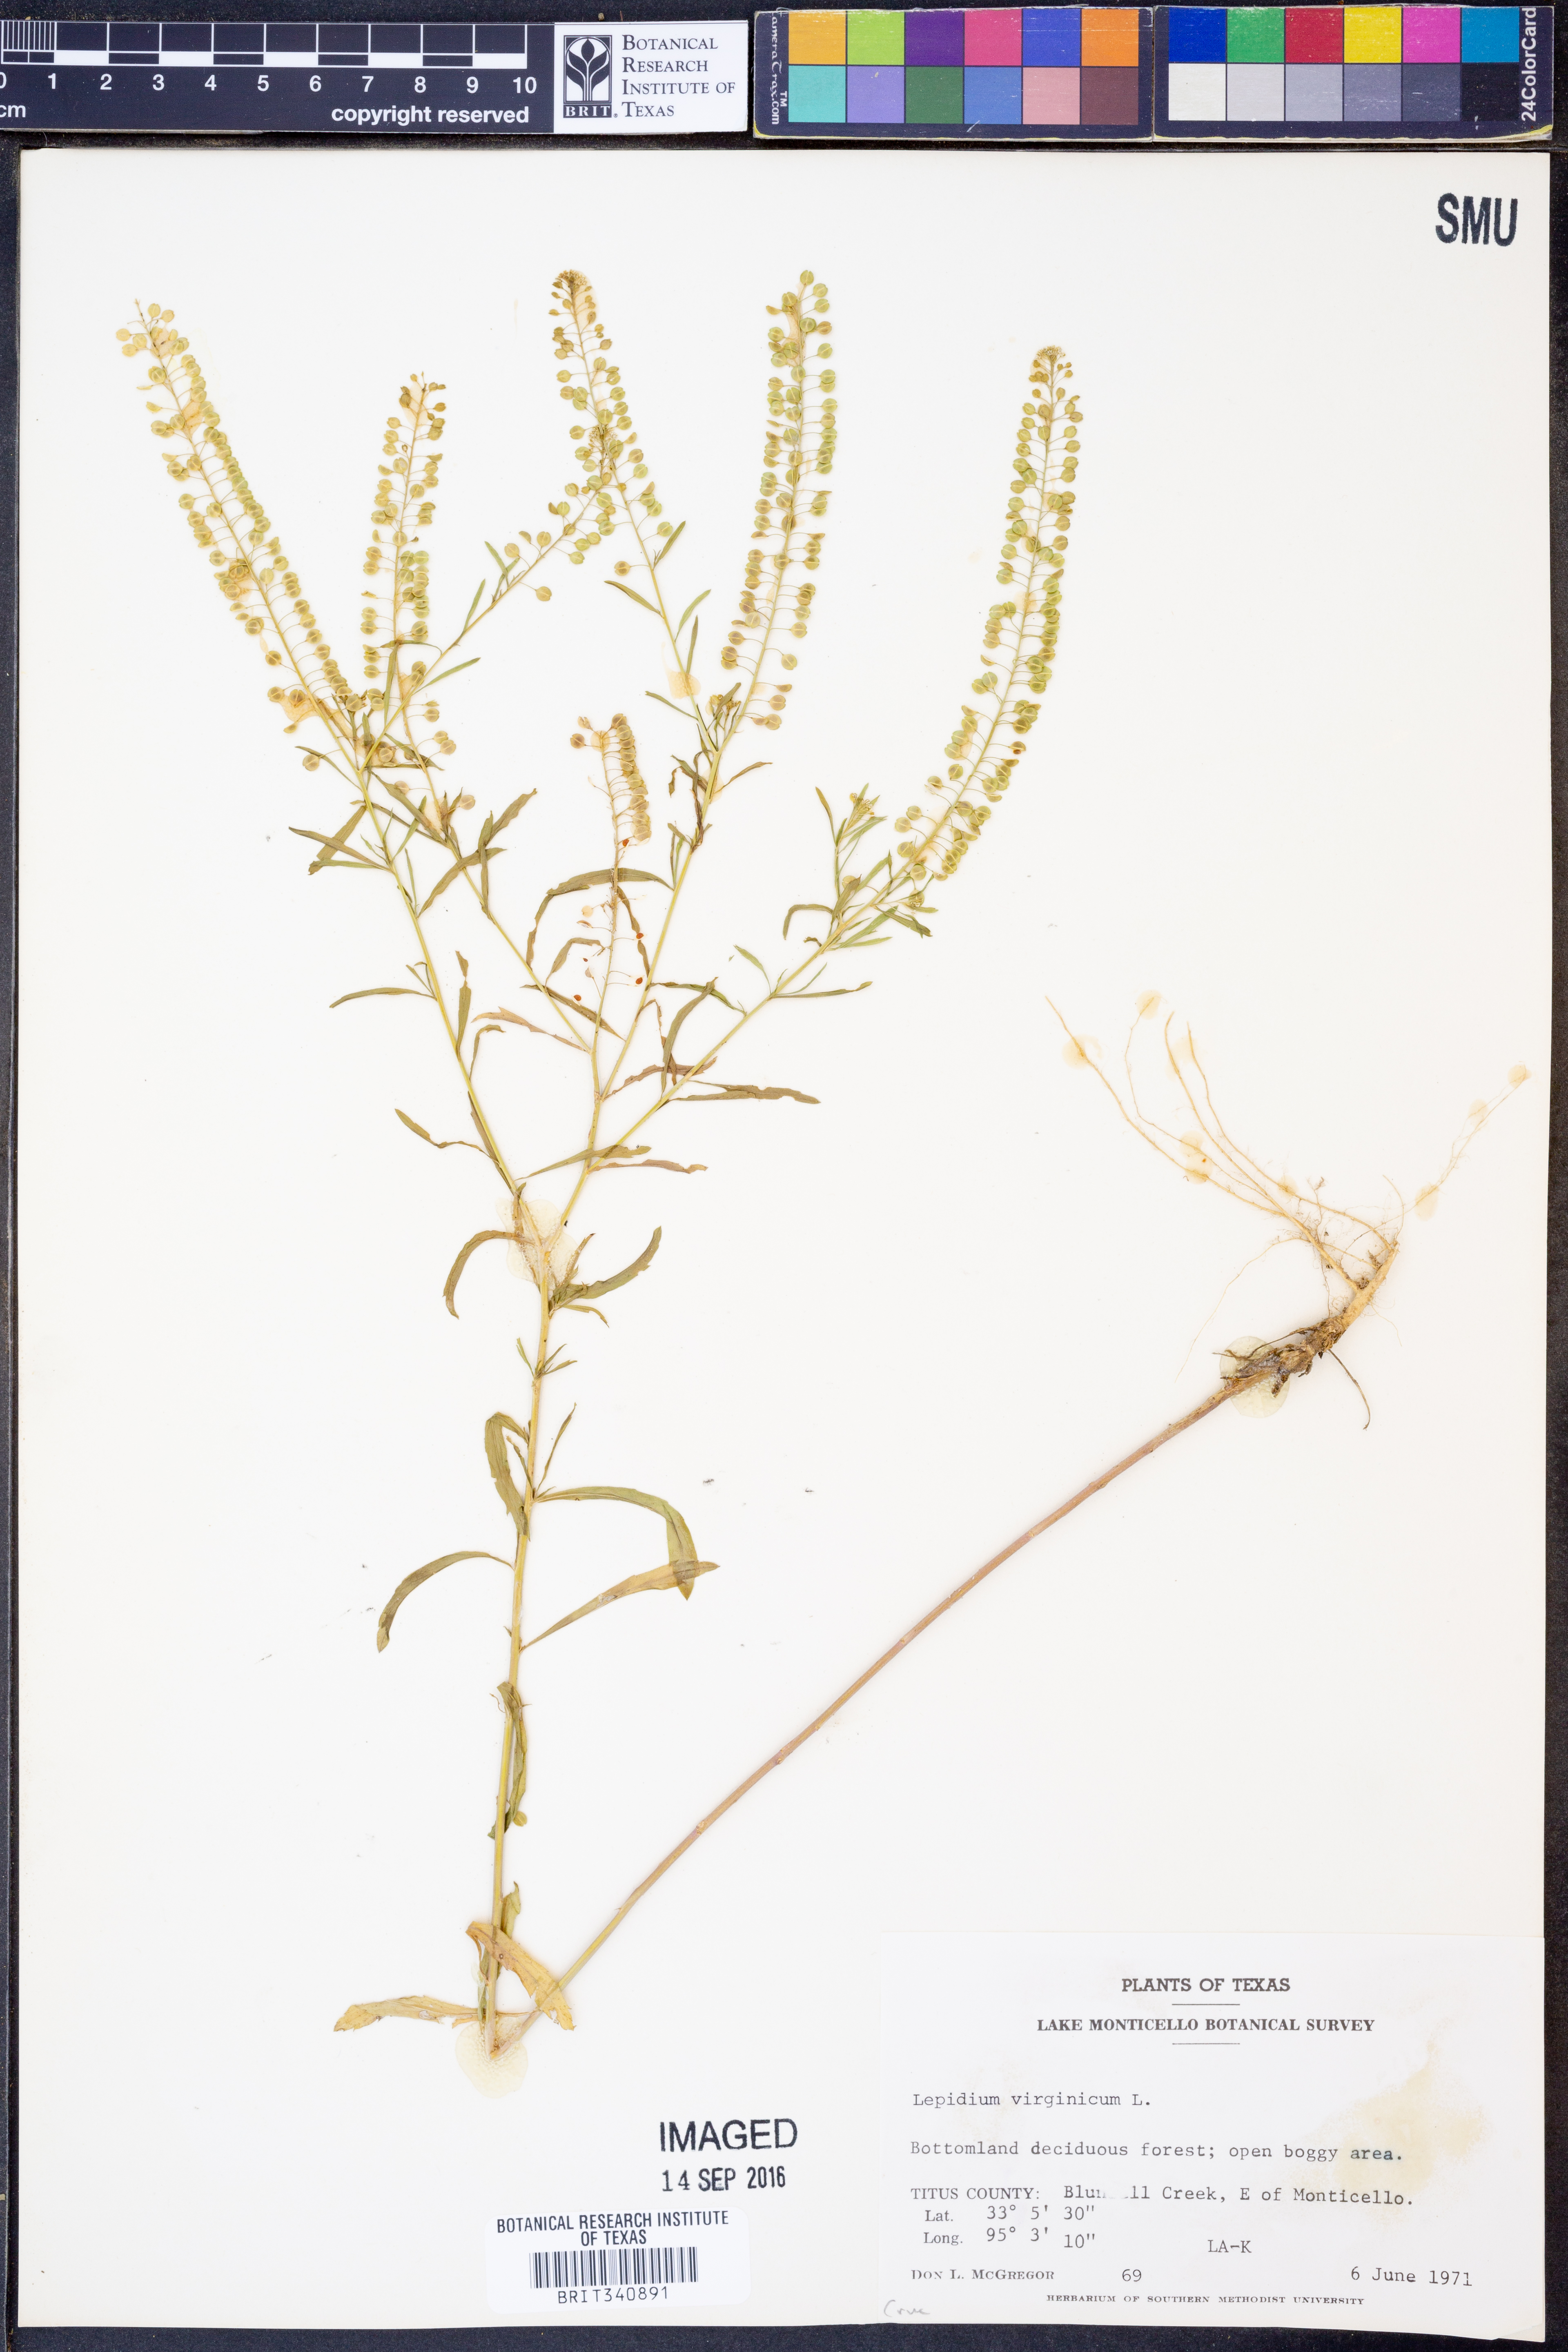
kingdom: Plantae
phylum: Tracheophyta
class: Magnoliopsida
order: Brassicales
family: Brassicaceae
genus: Lepidium
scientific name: Lepidium virginicum
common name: Least pepperwort
